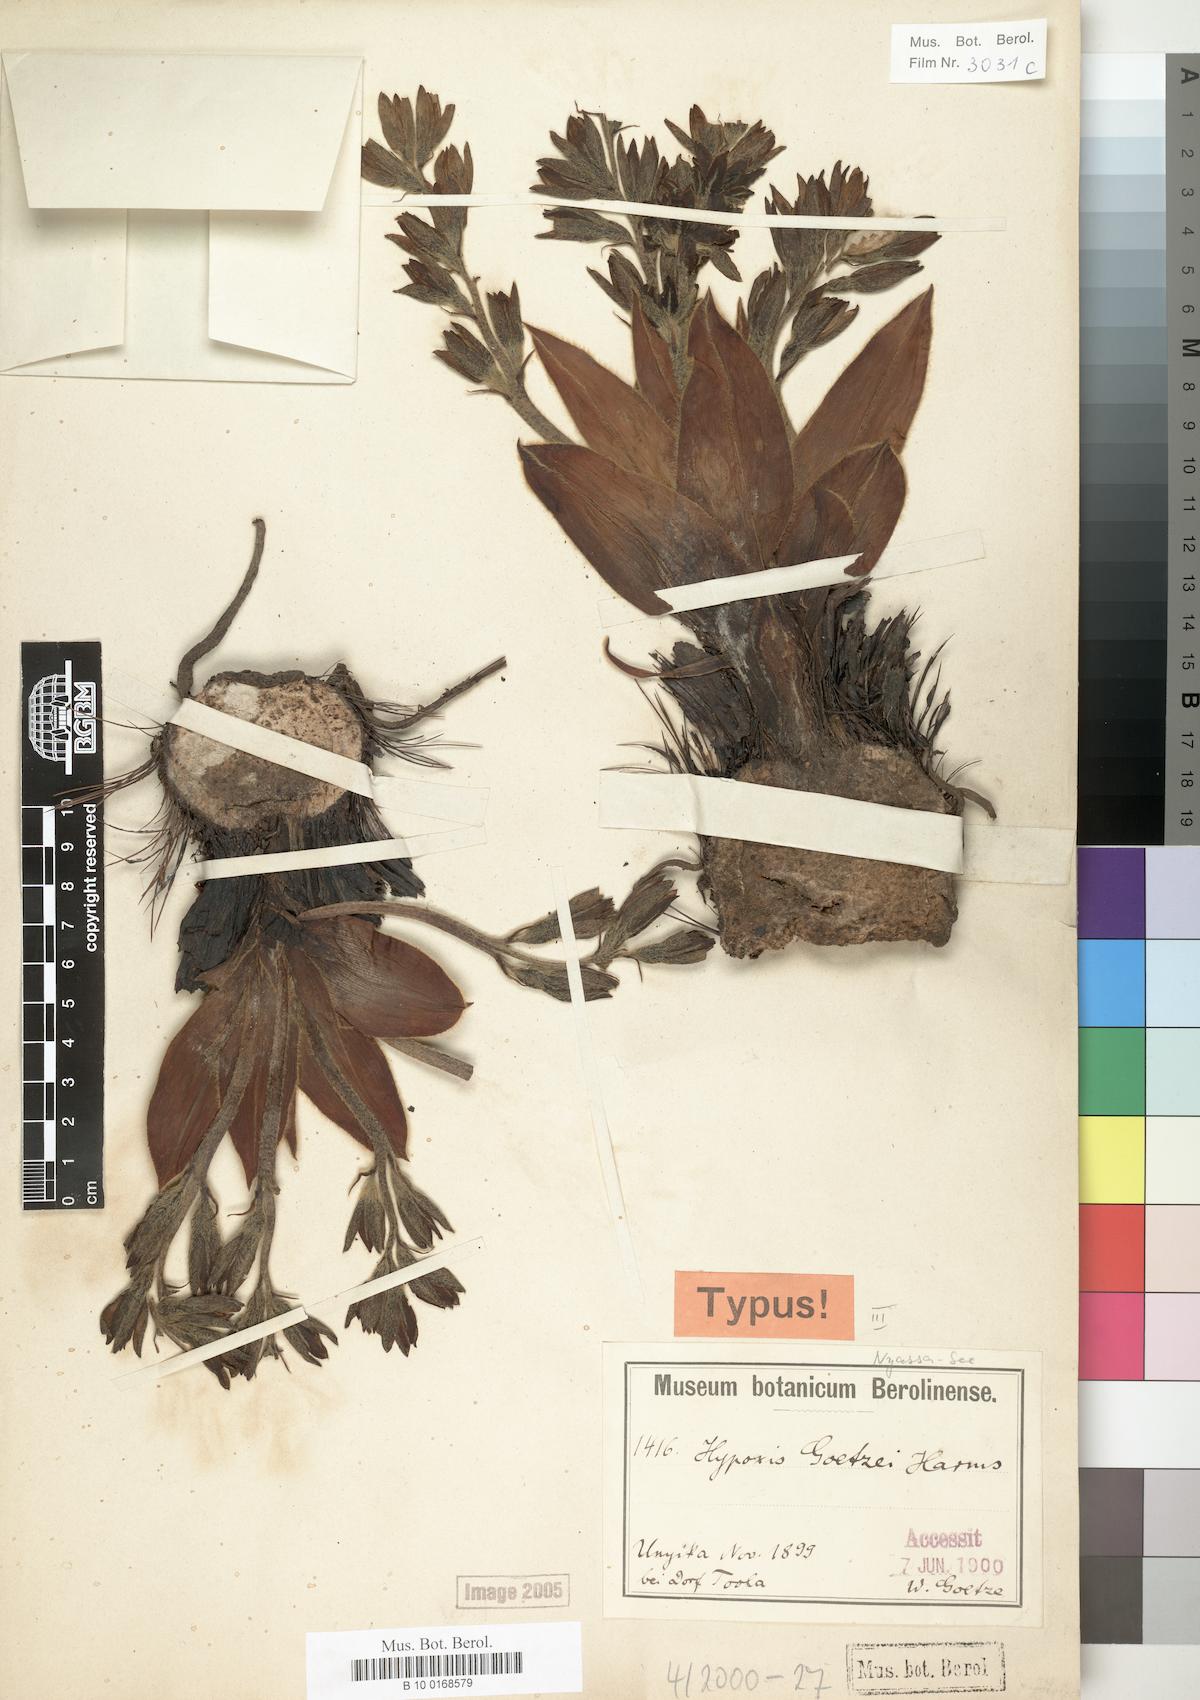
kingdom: Plantae
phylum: Tracheophyta
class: Liliopsida
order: Asparagales
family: Hypoxidaceae
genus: Hypoxis
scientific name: Hypoxis goetzei
